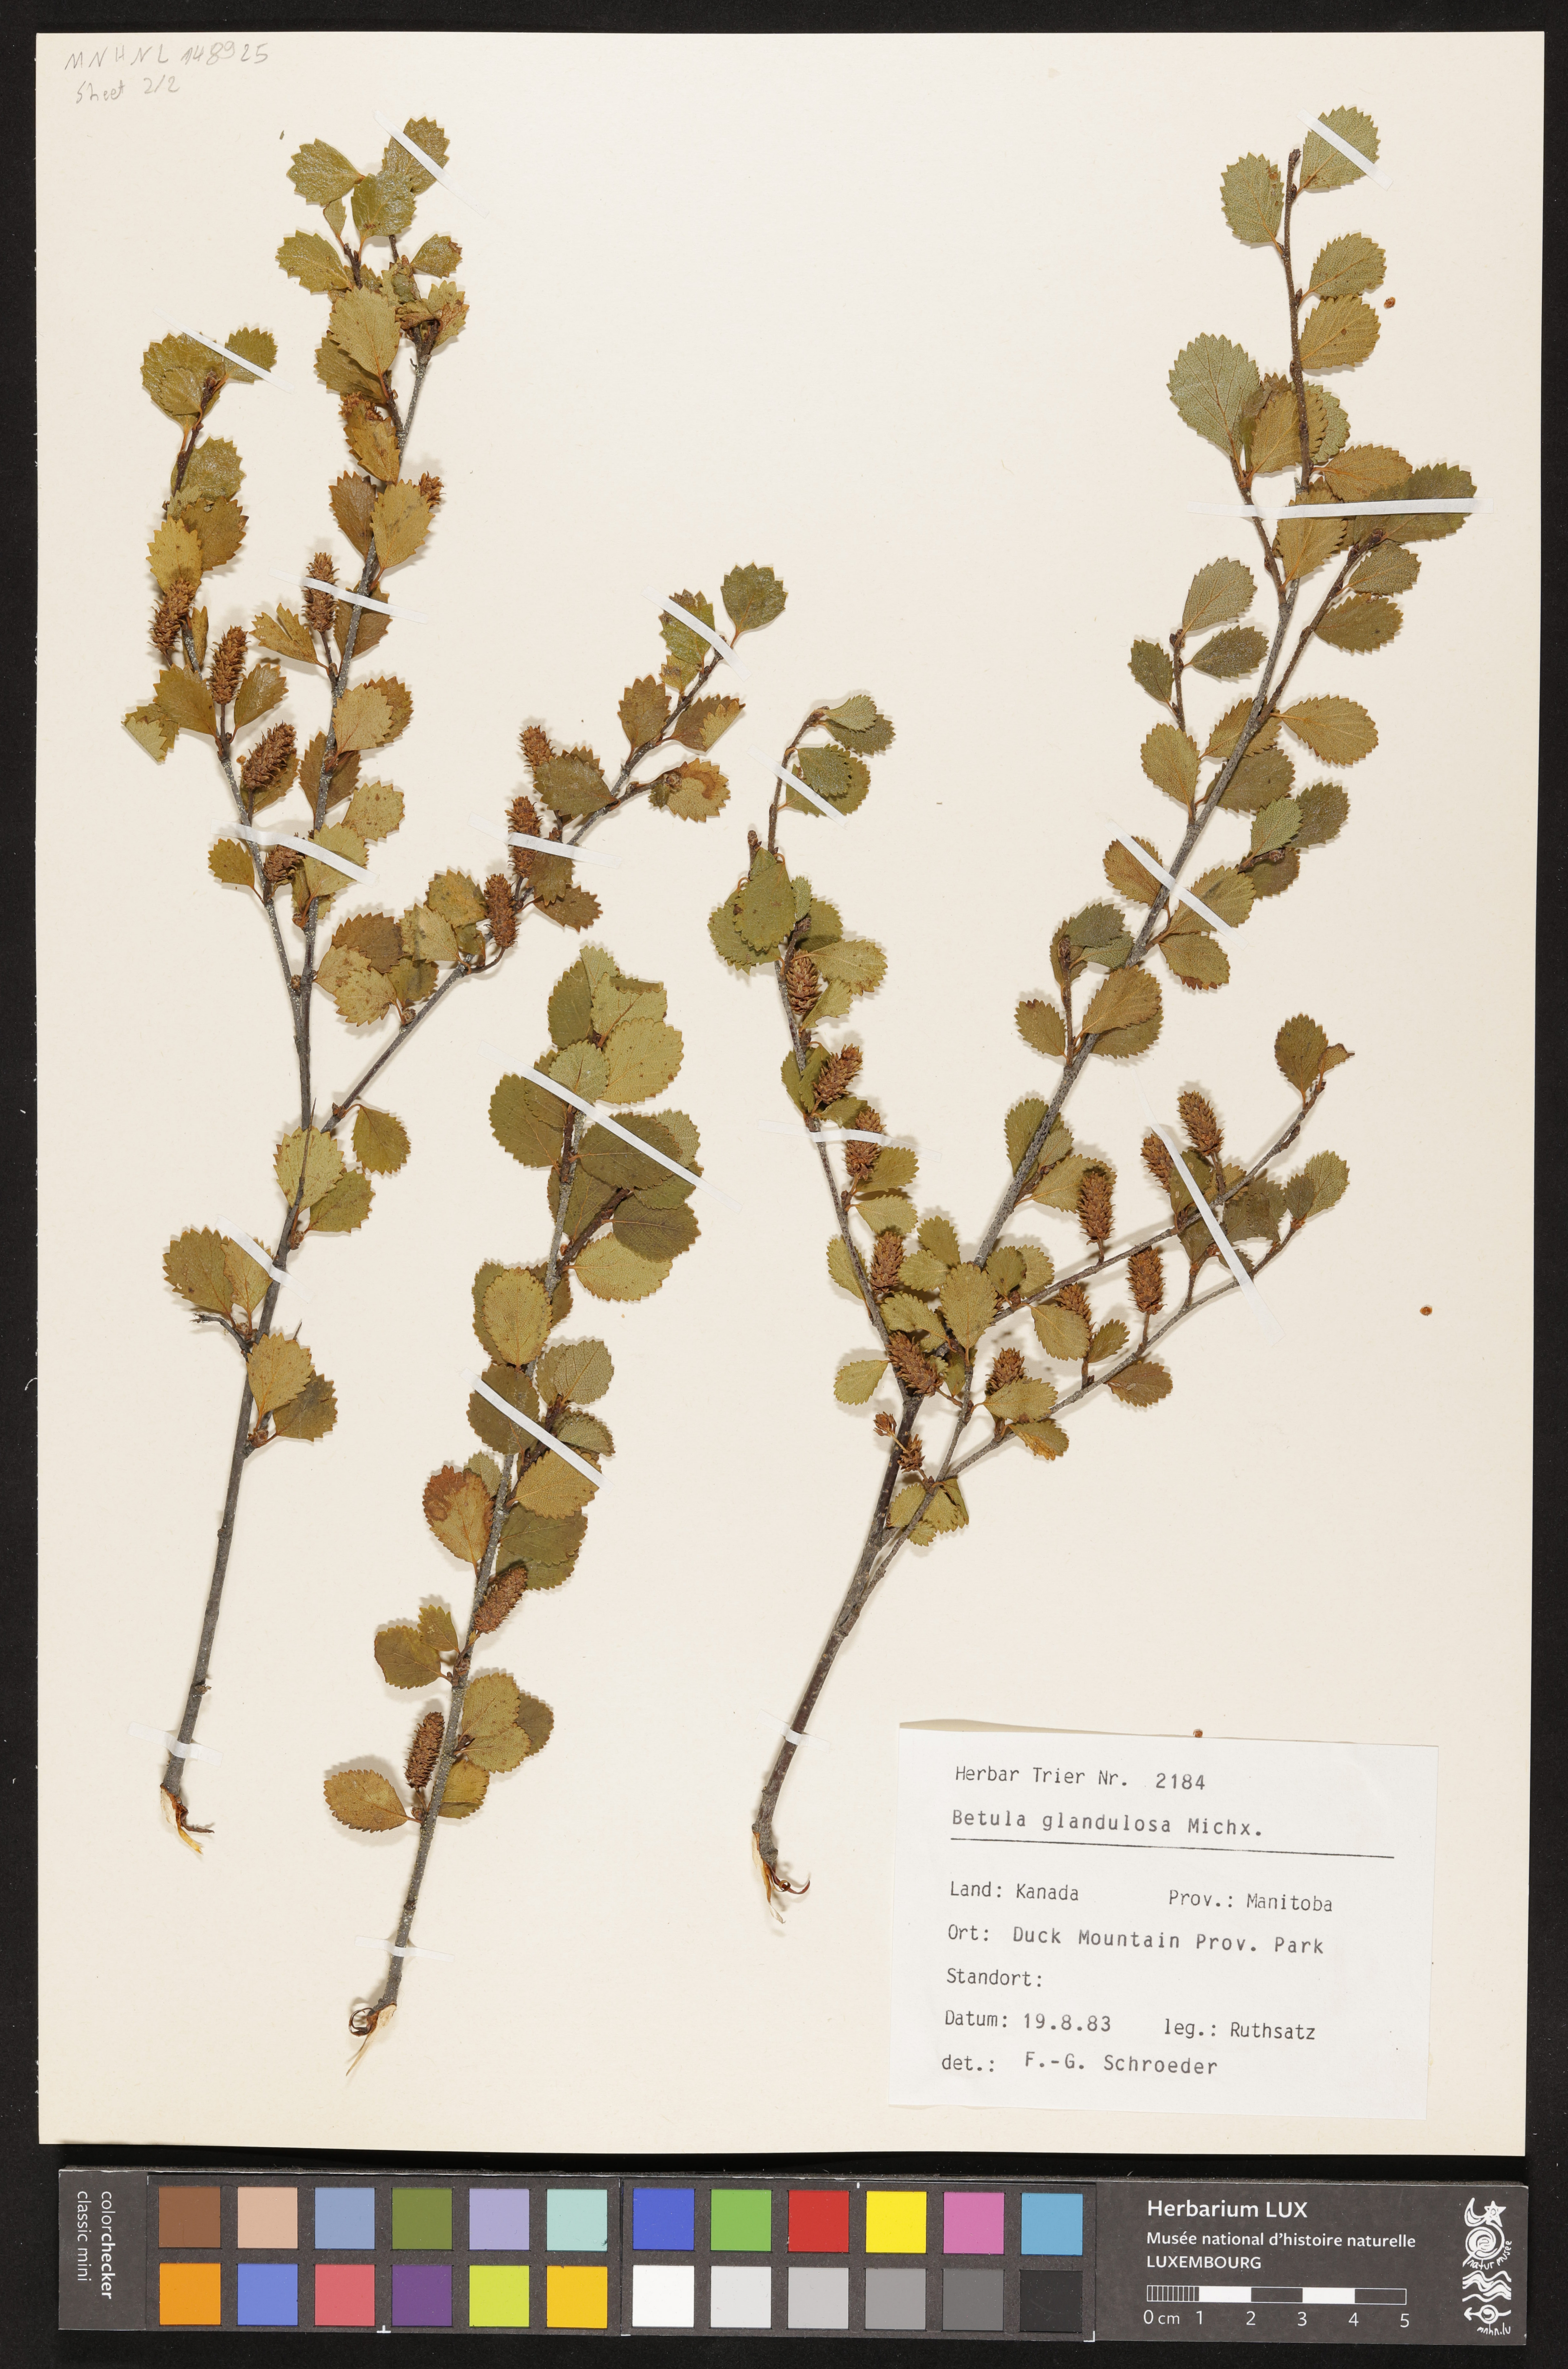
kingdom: Plantae
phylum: Tracheophyta
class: Magnoliopsida
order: Fagales
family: Betulaceae
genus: Betula
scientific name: Betula glandulosa
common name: Dwarf birch
